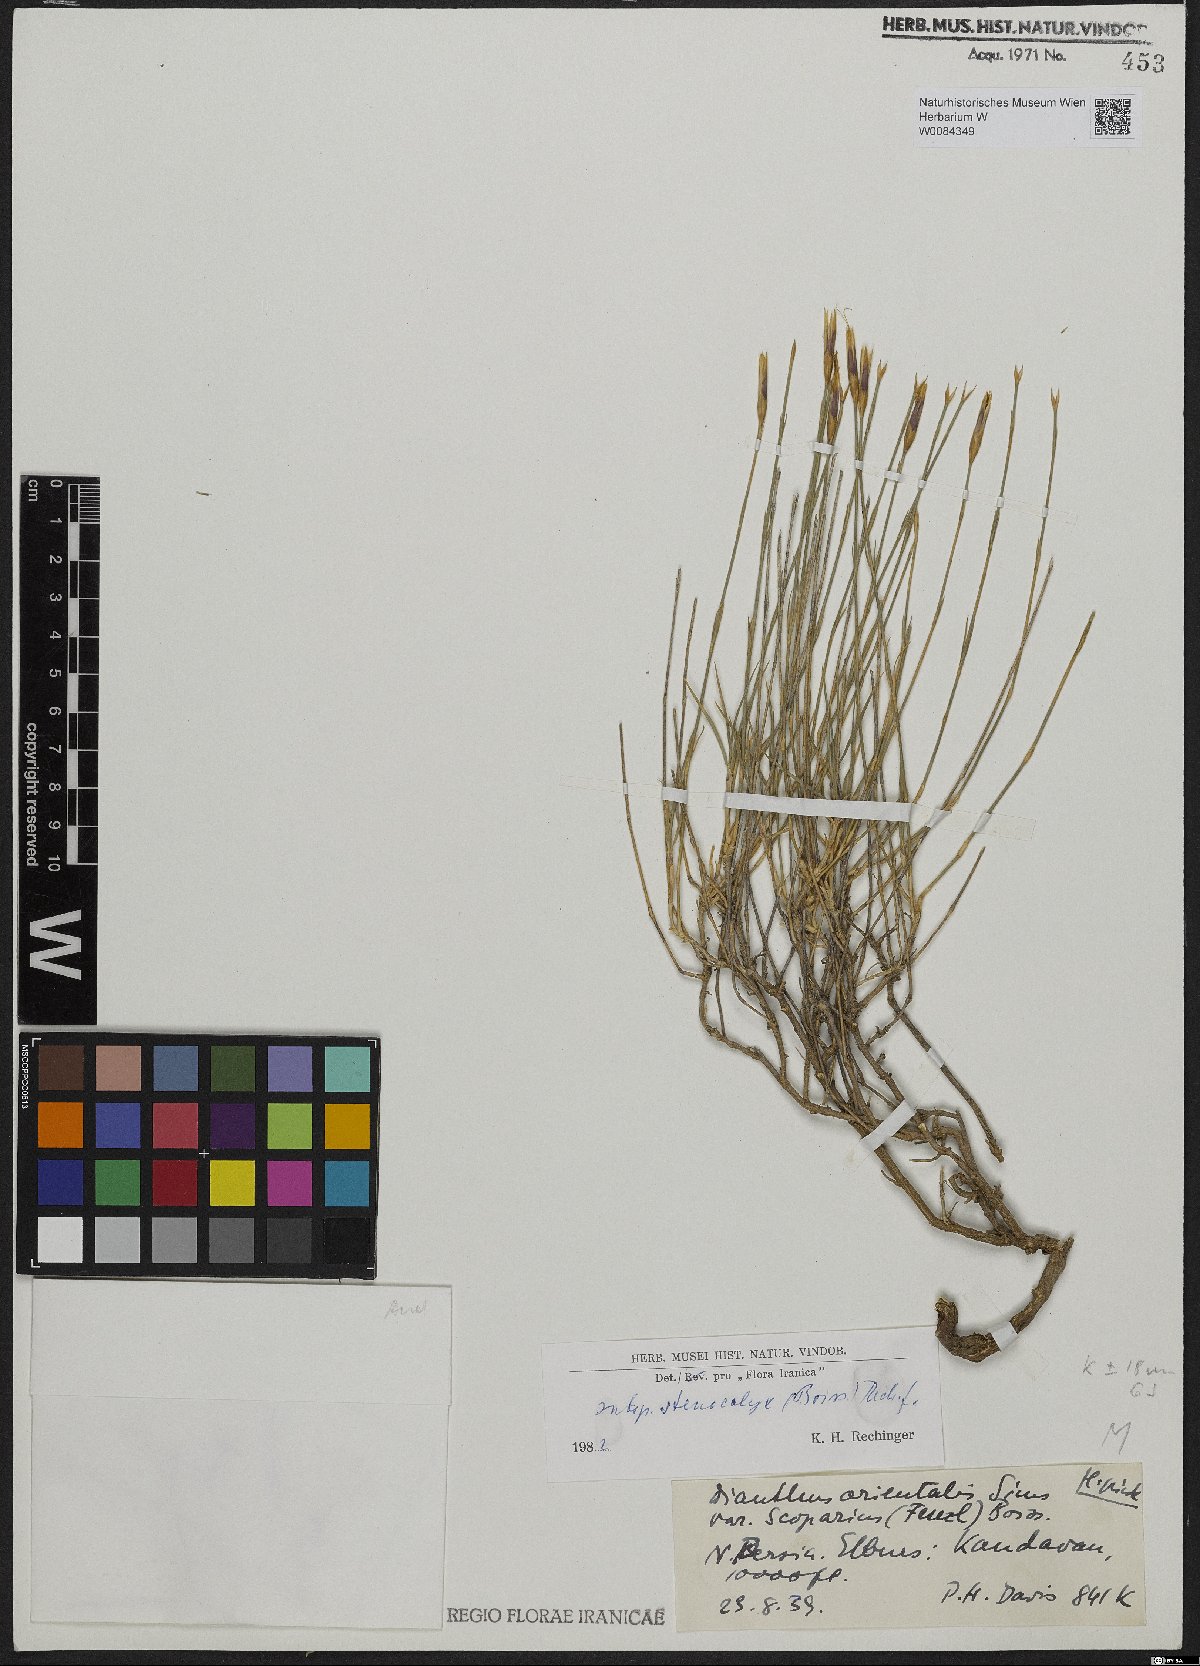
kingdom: Plantae
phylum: Tracheophyta
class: Magnoliopsida
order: Caryophyllales
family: Caryophyllaceae
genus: Dianthus
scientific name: Dianthus orientalis
